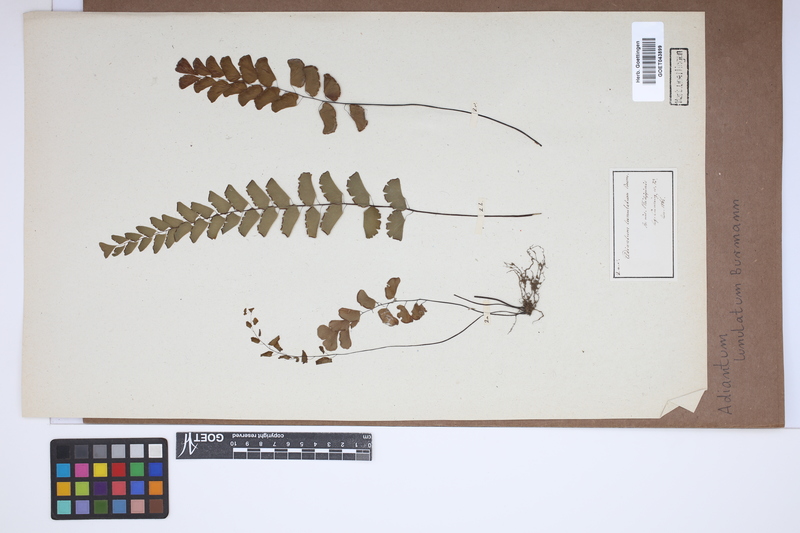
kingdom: Plantae
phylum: Tracheophyta
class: Polypodiopsida
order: Polypodiales
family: Pteridaceae
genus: Adiantum
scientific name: Adiantum philippense
